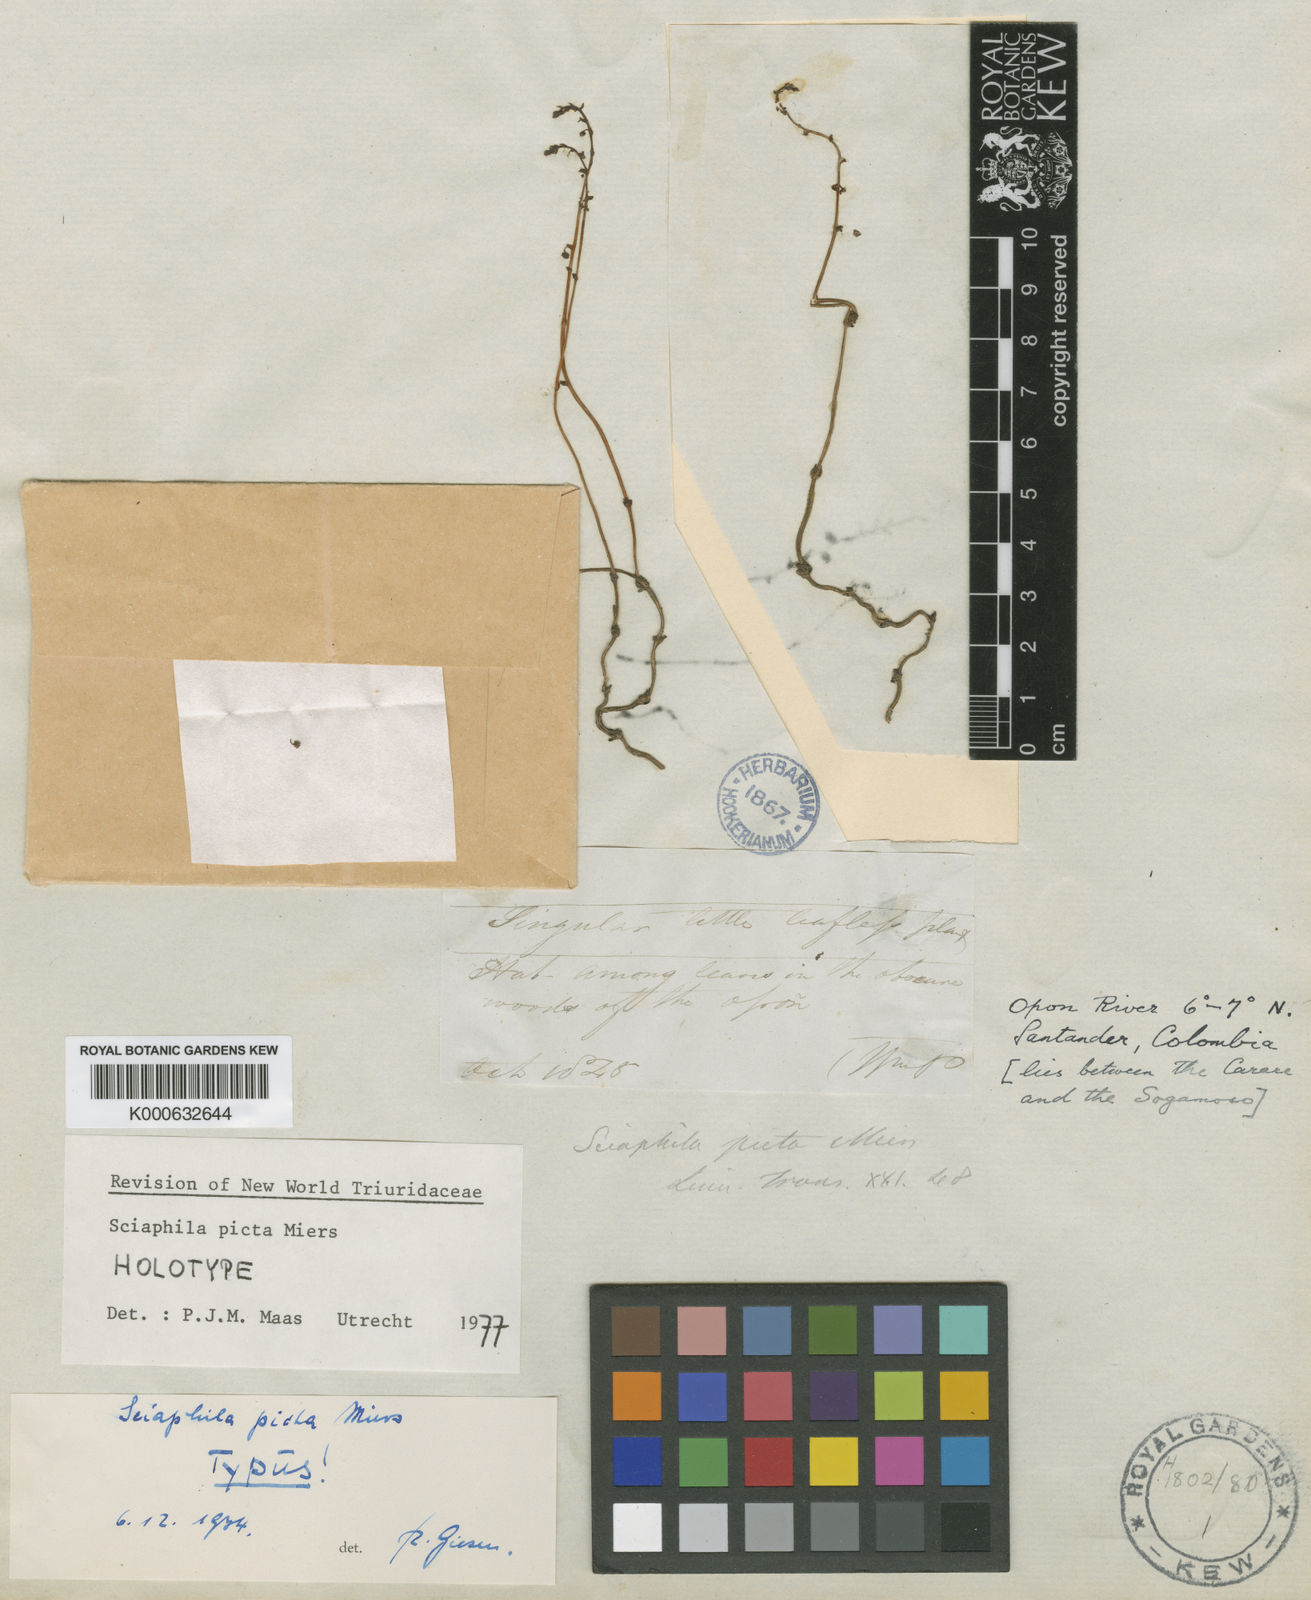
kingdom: Plantae
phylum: Tracheophyta
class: Liliopsida
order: Pandanales
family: Triuridaceae
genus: Sciaphila
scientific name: Sciaphila picta
